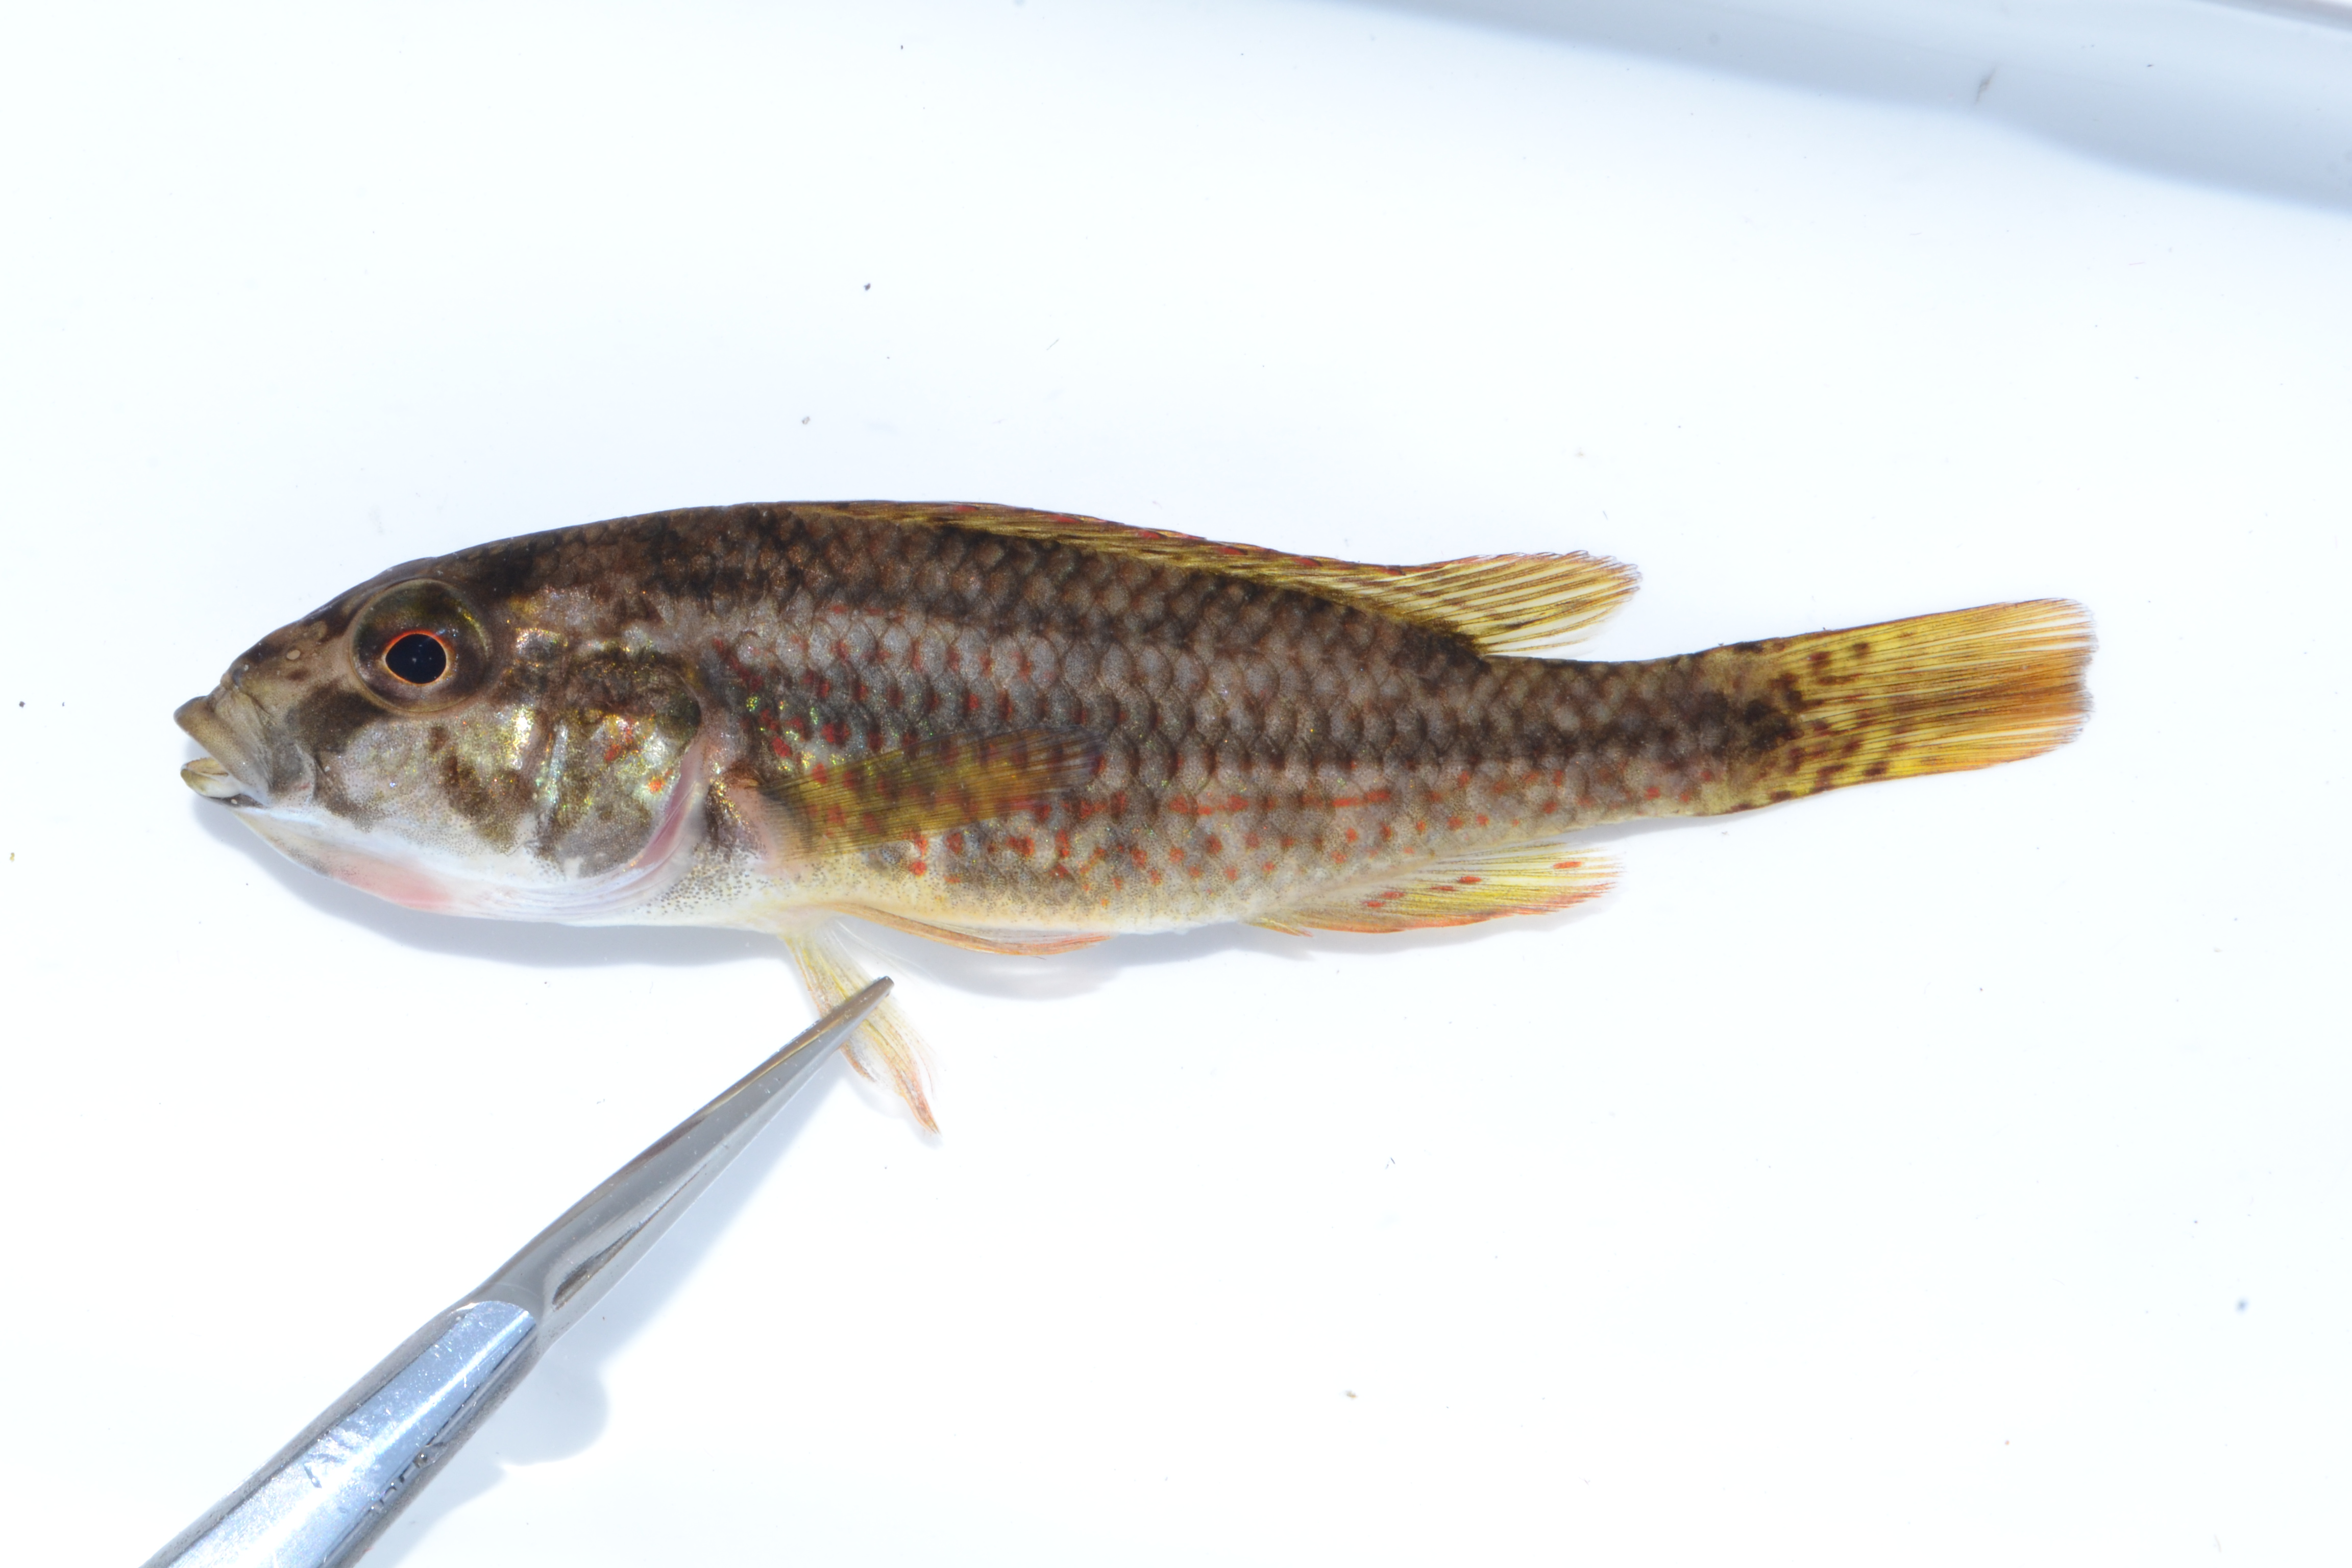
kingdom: Animalia
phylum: Chordata
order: Perciformes
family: Cichlidae
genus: Pharyngochromis
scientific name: Pharyngochromis
